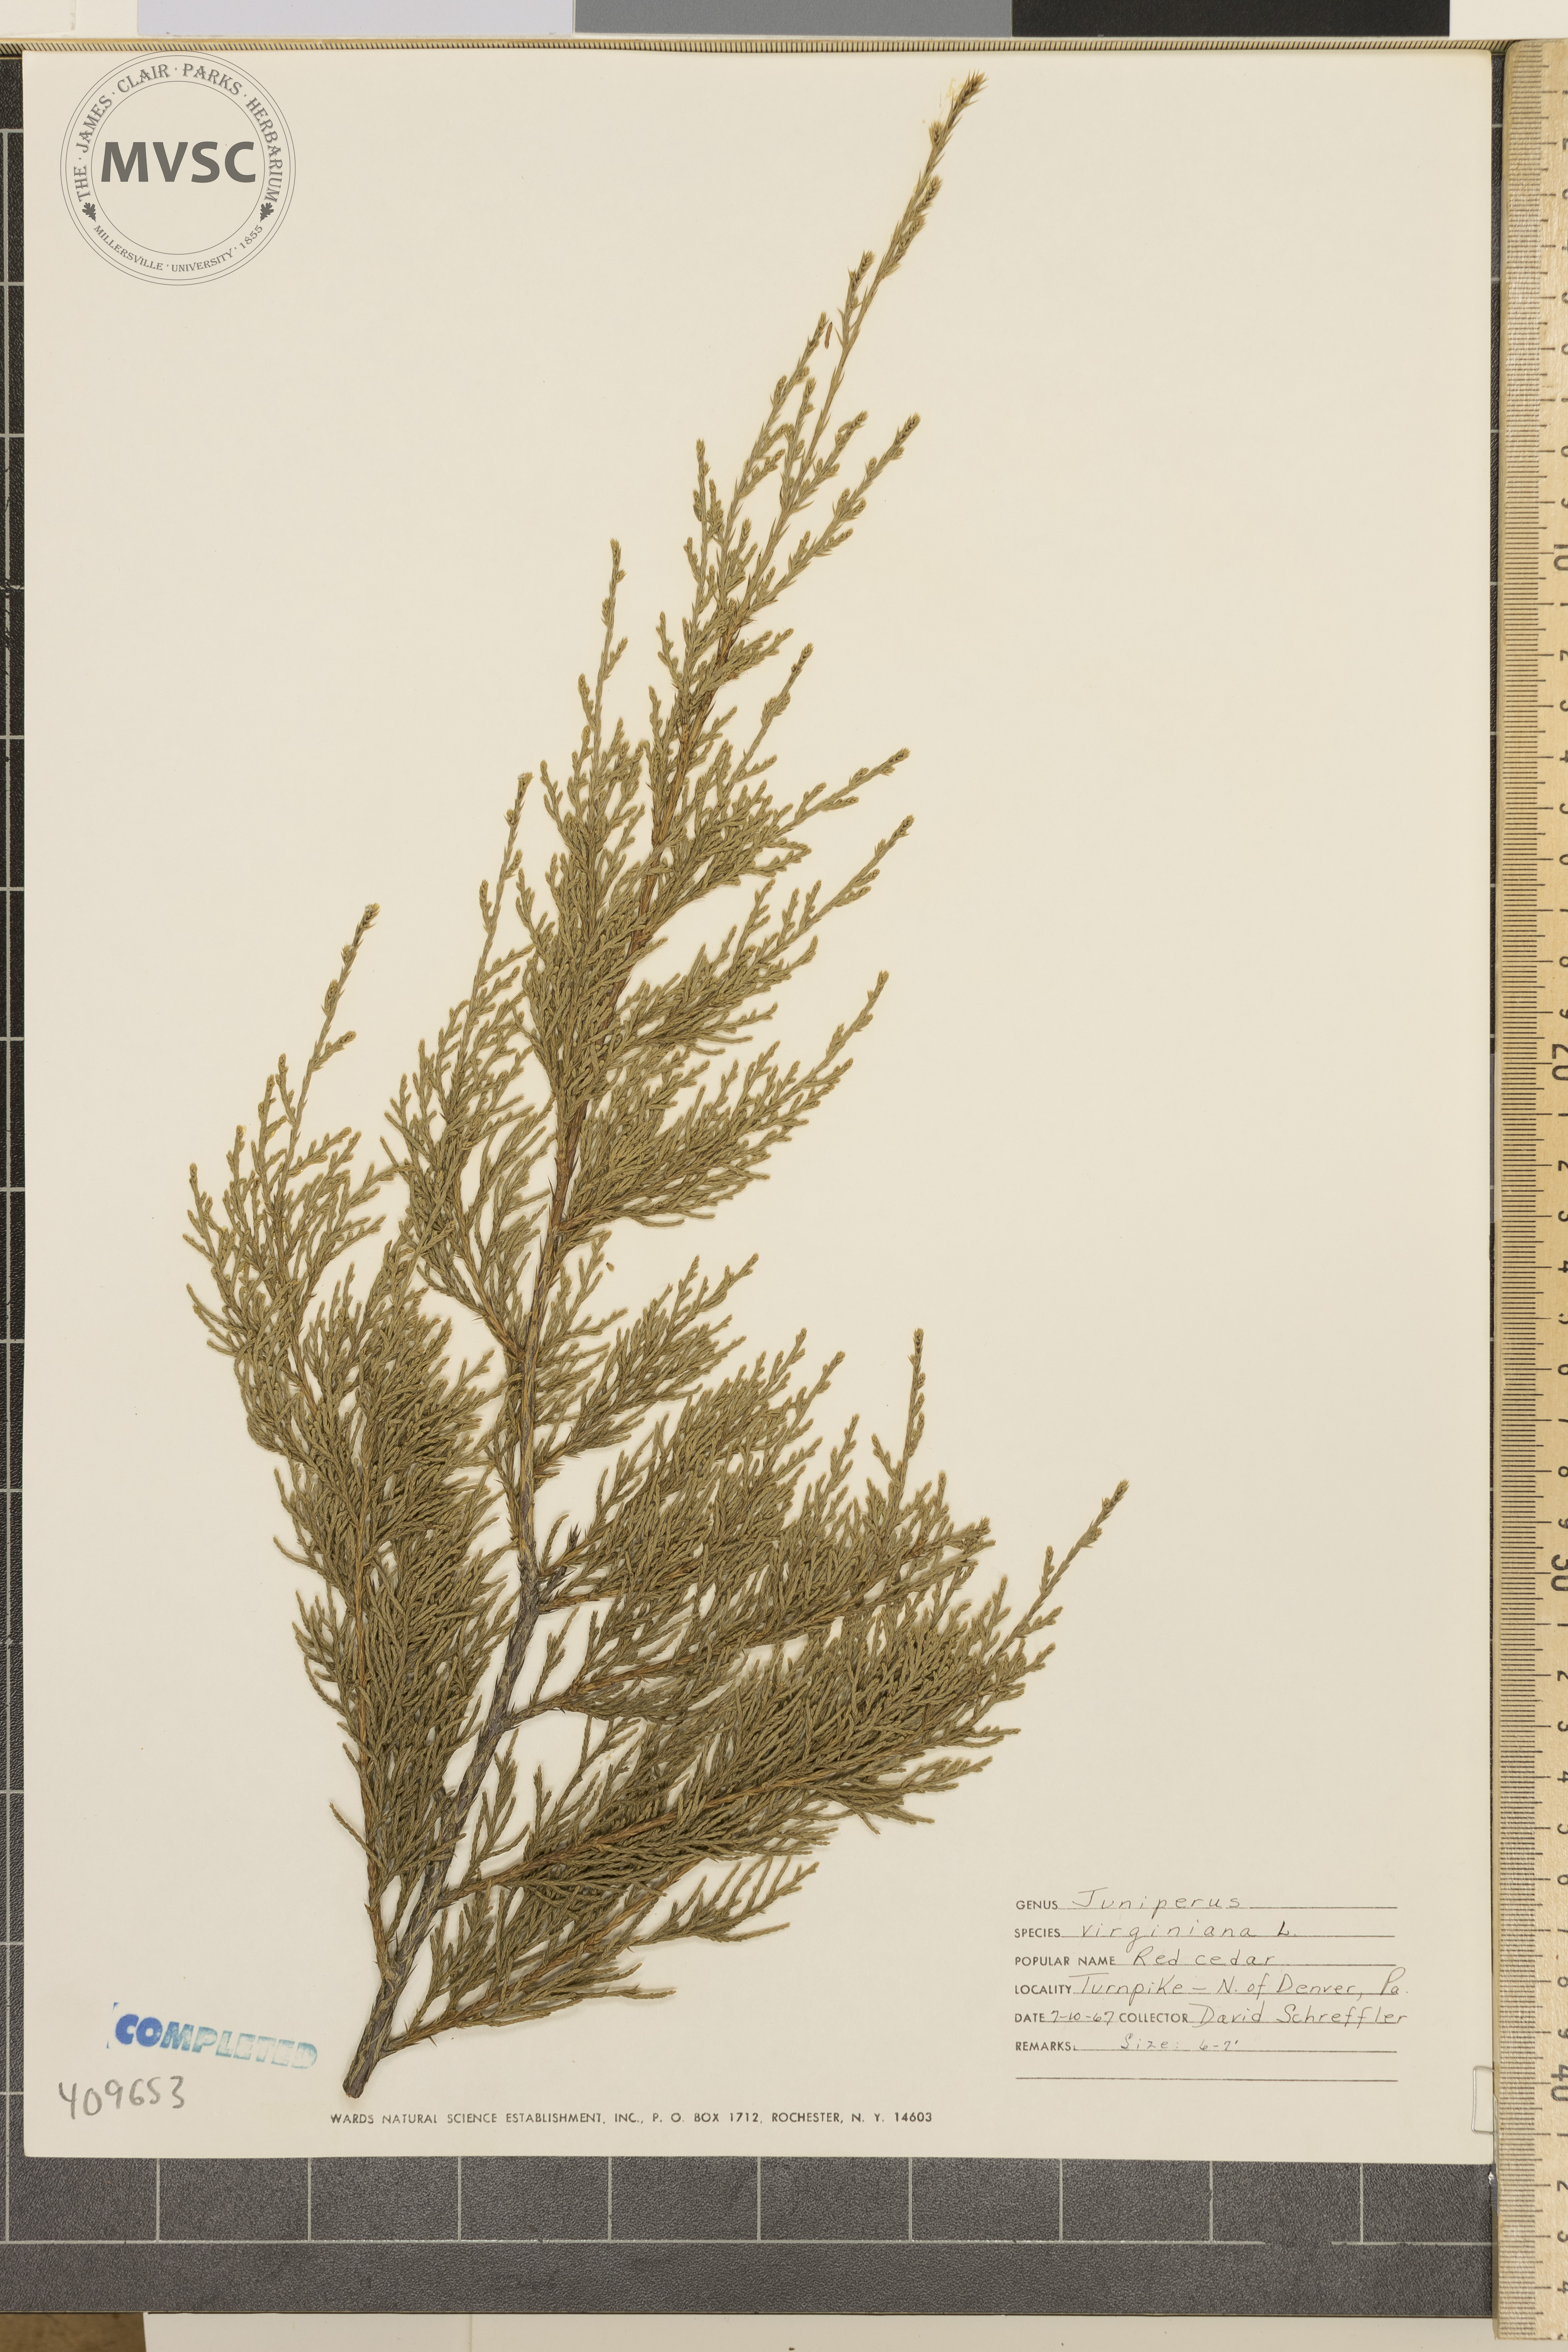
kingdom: Plantae
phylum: Tracheophyta
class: Pinopsida
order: Pinales
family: Cupressaceae
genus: Juniperus
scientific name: Juniperus virginiana
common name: Red juniper
